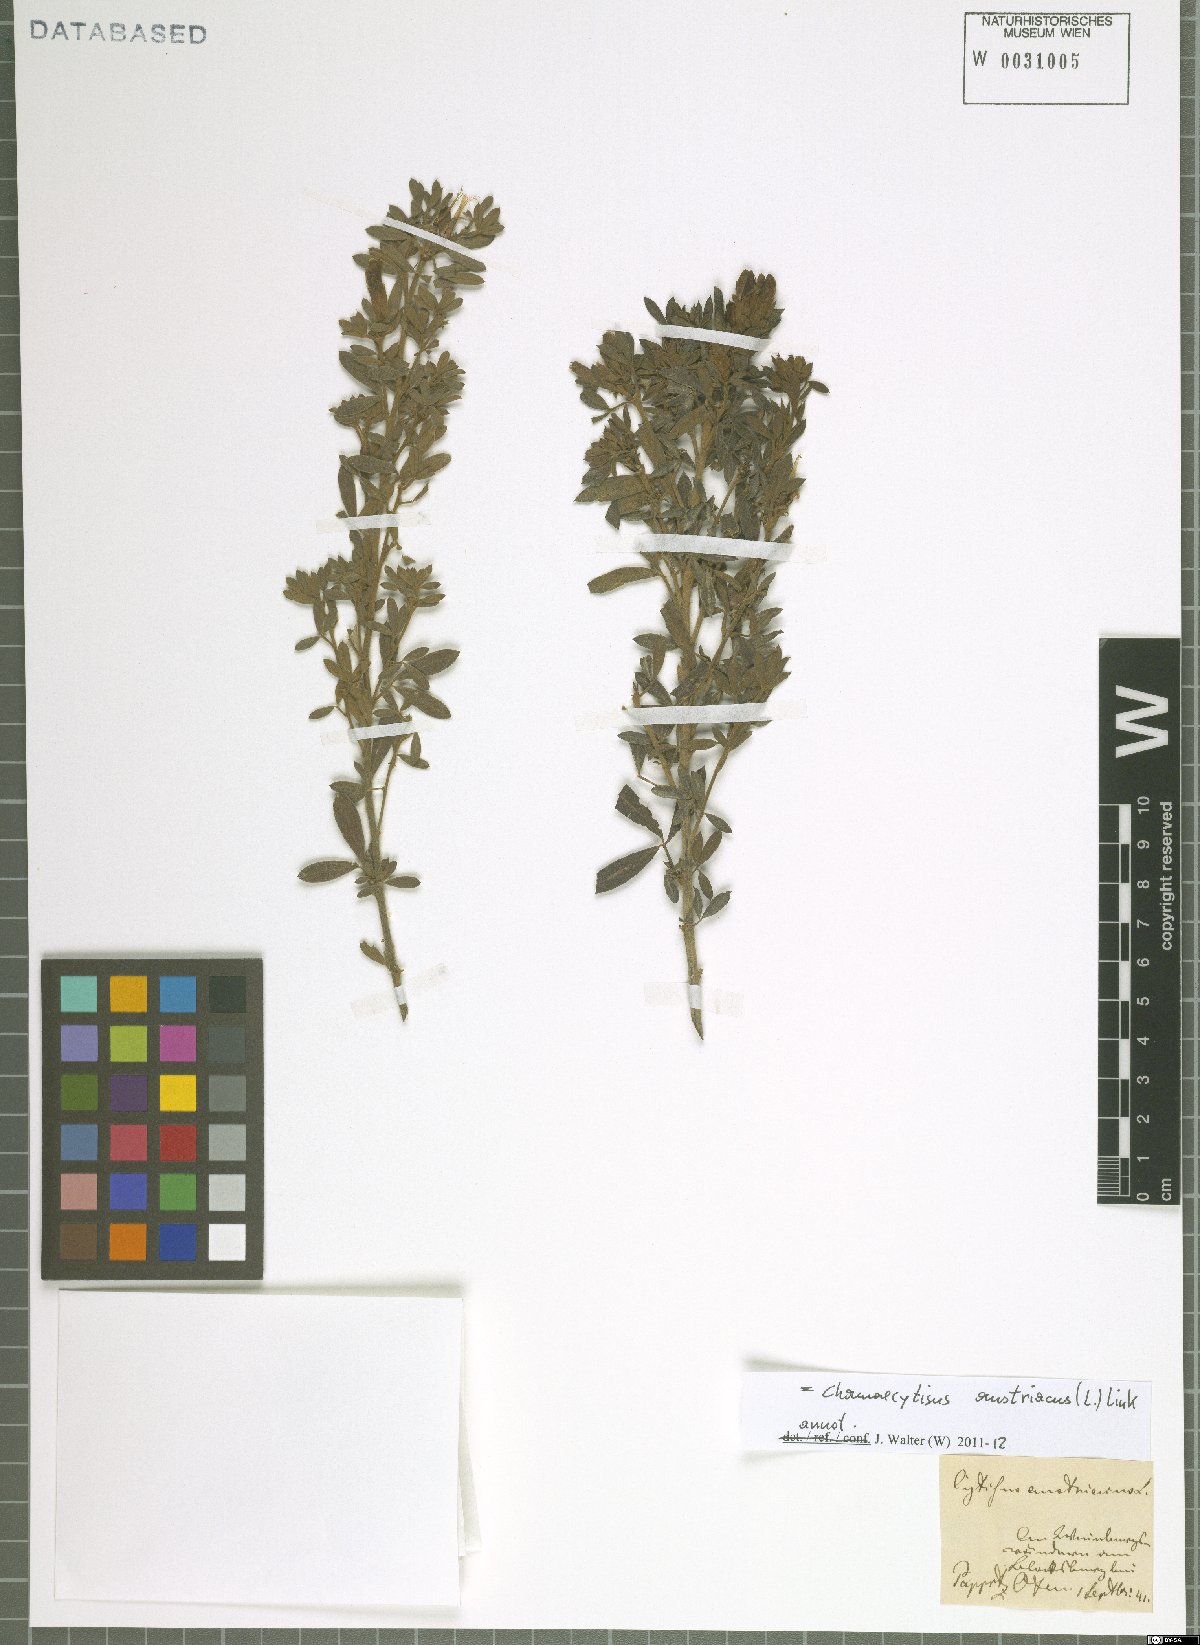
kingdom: Plantae
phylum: Tracheophyta
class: Magnoliopsida
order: Fabales
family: Fabaceae
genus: Chamaecytisus
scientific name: Chamaecytisus austriacus
